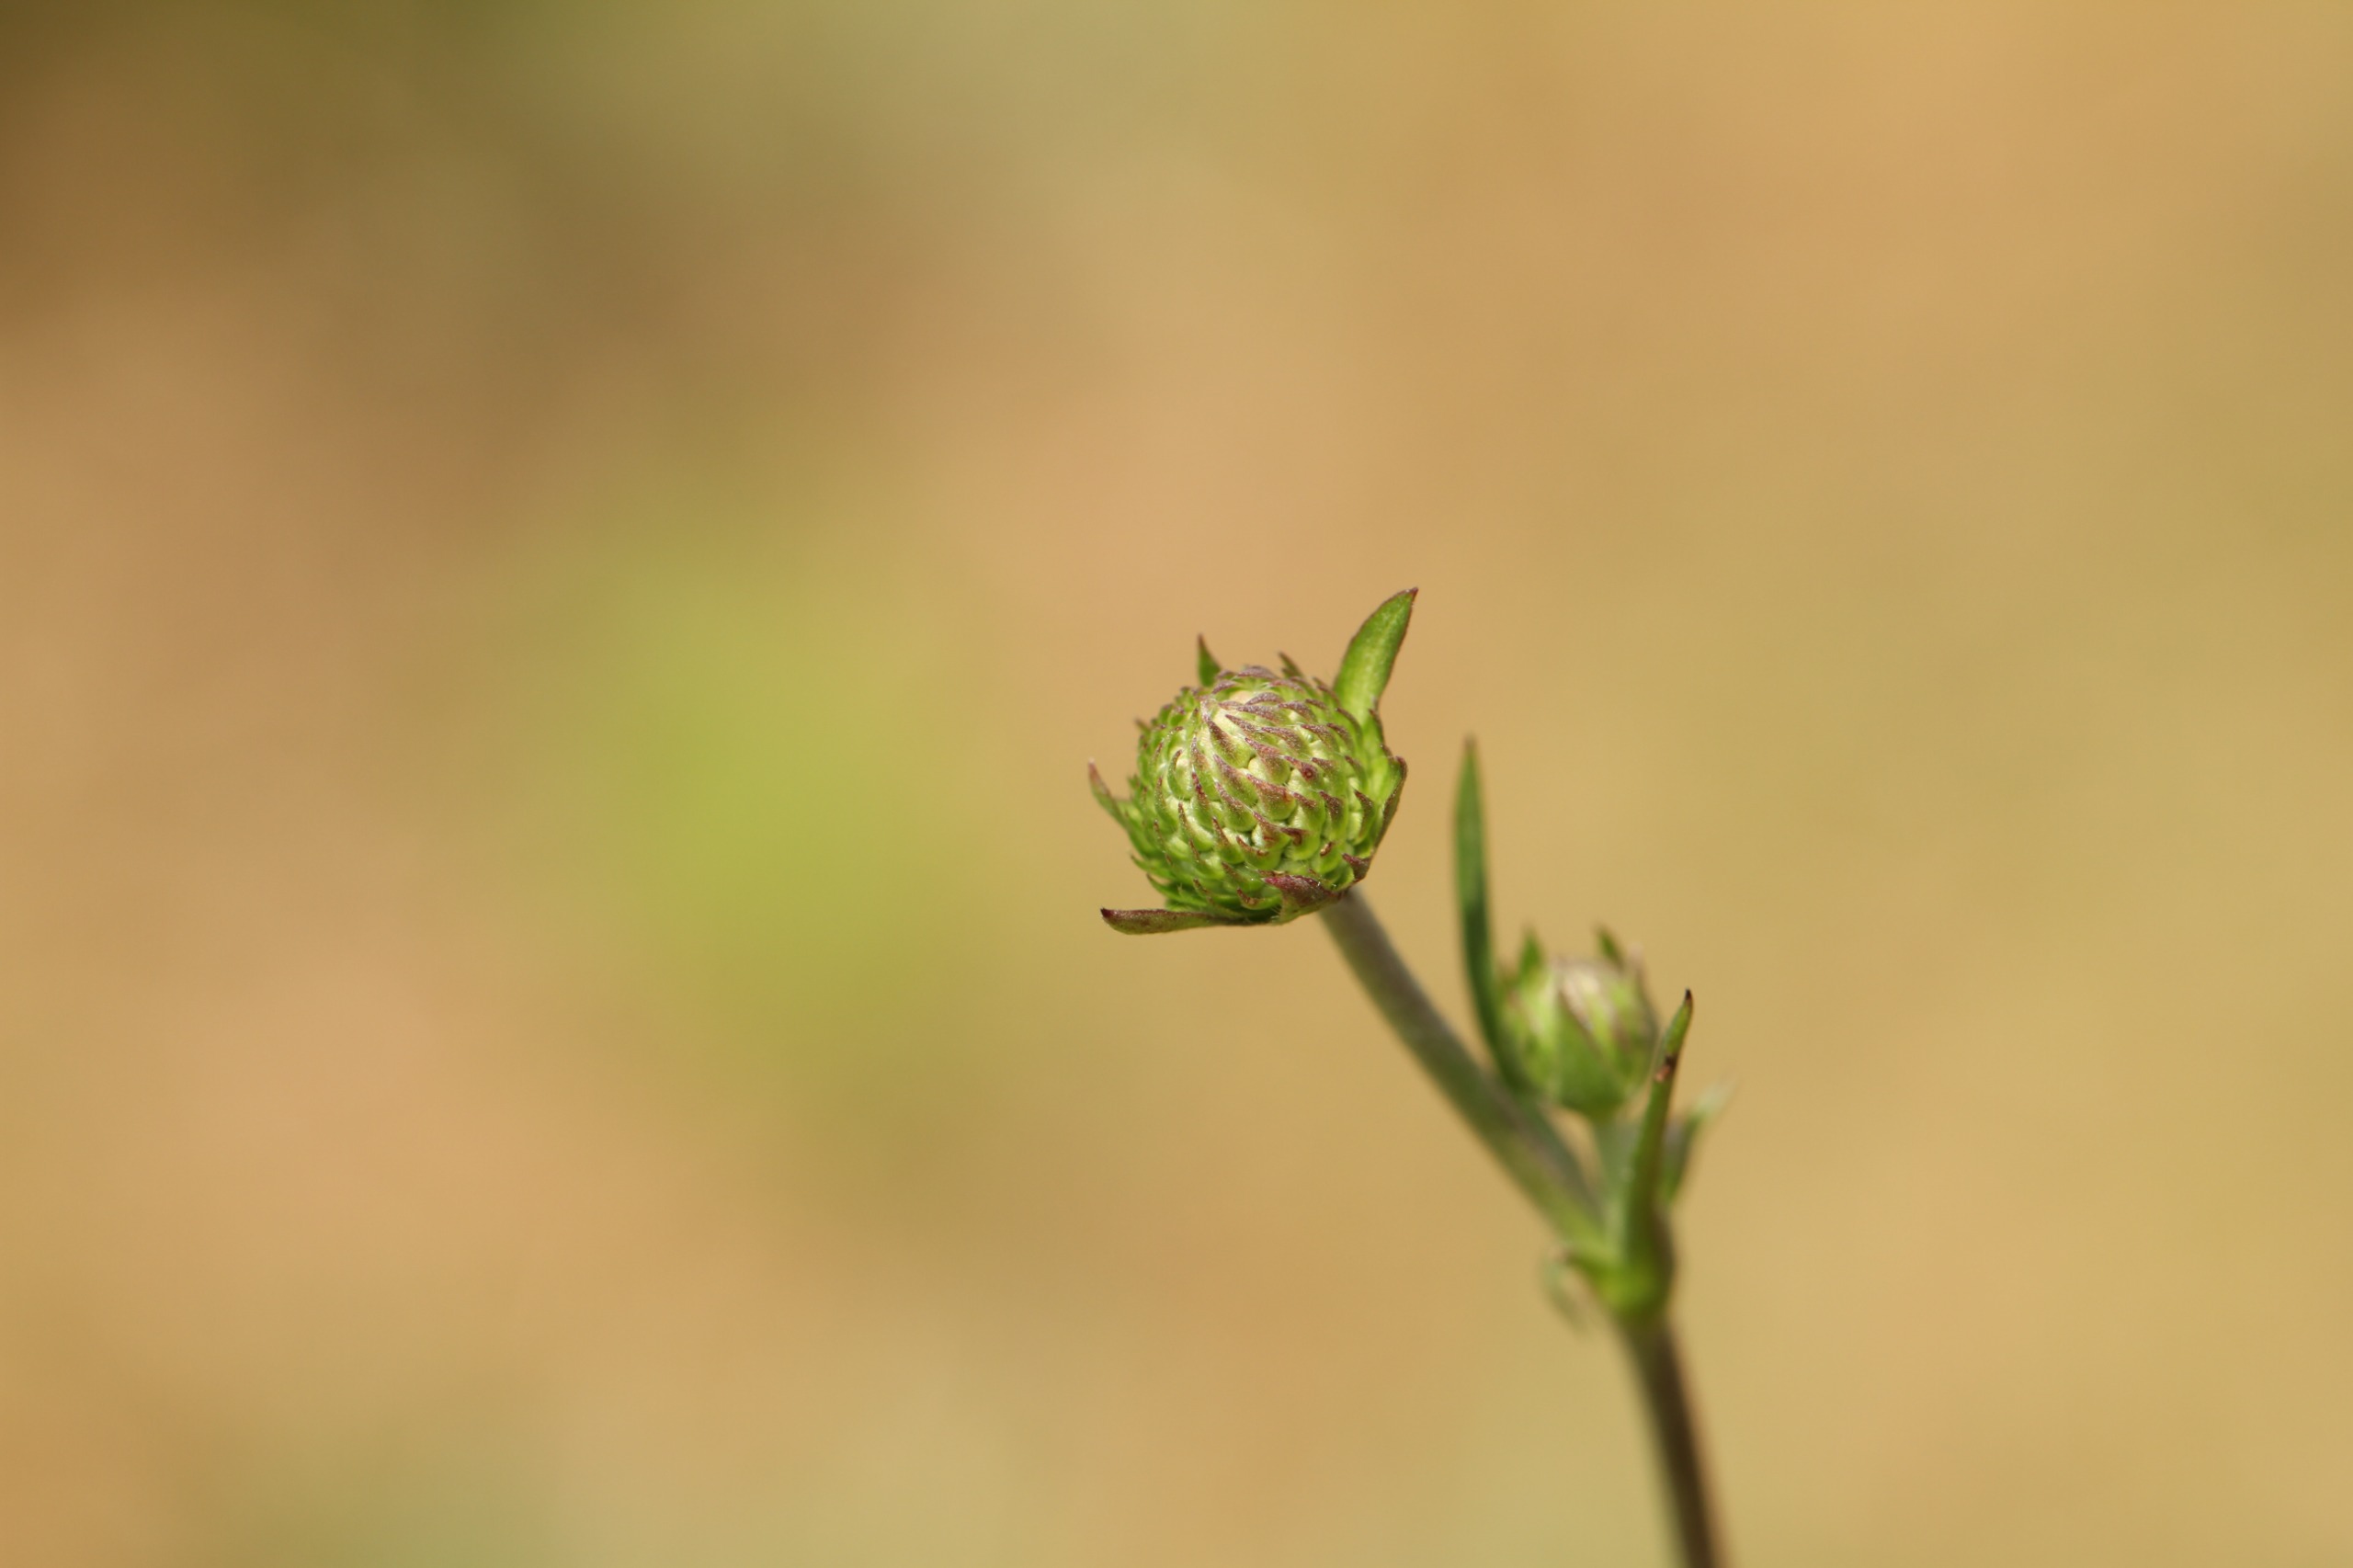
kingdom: Plantae
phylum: Tracheophyta
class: Magnoliopsida
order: Dipsacales
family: Caprifoliaceae
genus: Succisa
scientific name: Succisa pratensis
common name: Djævelsbid
